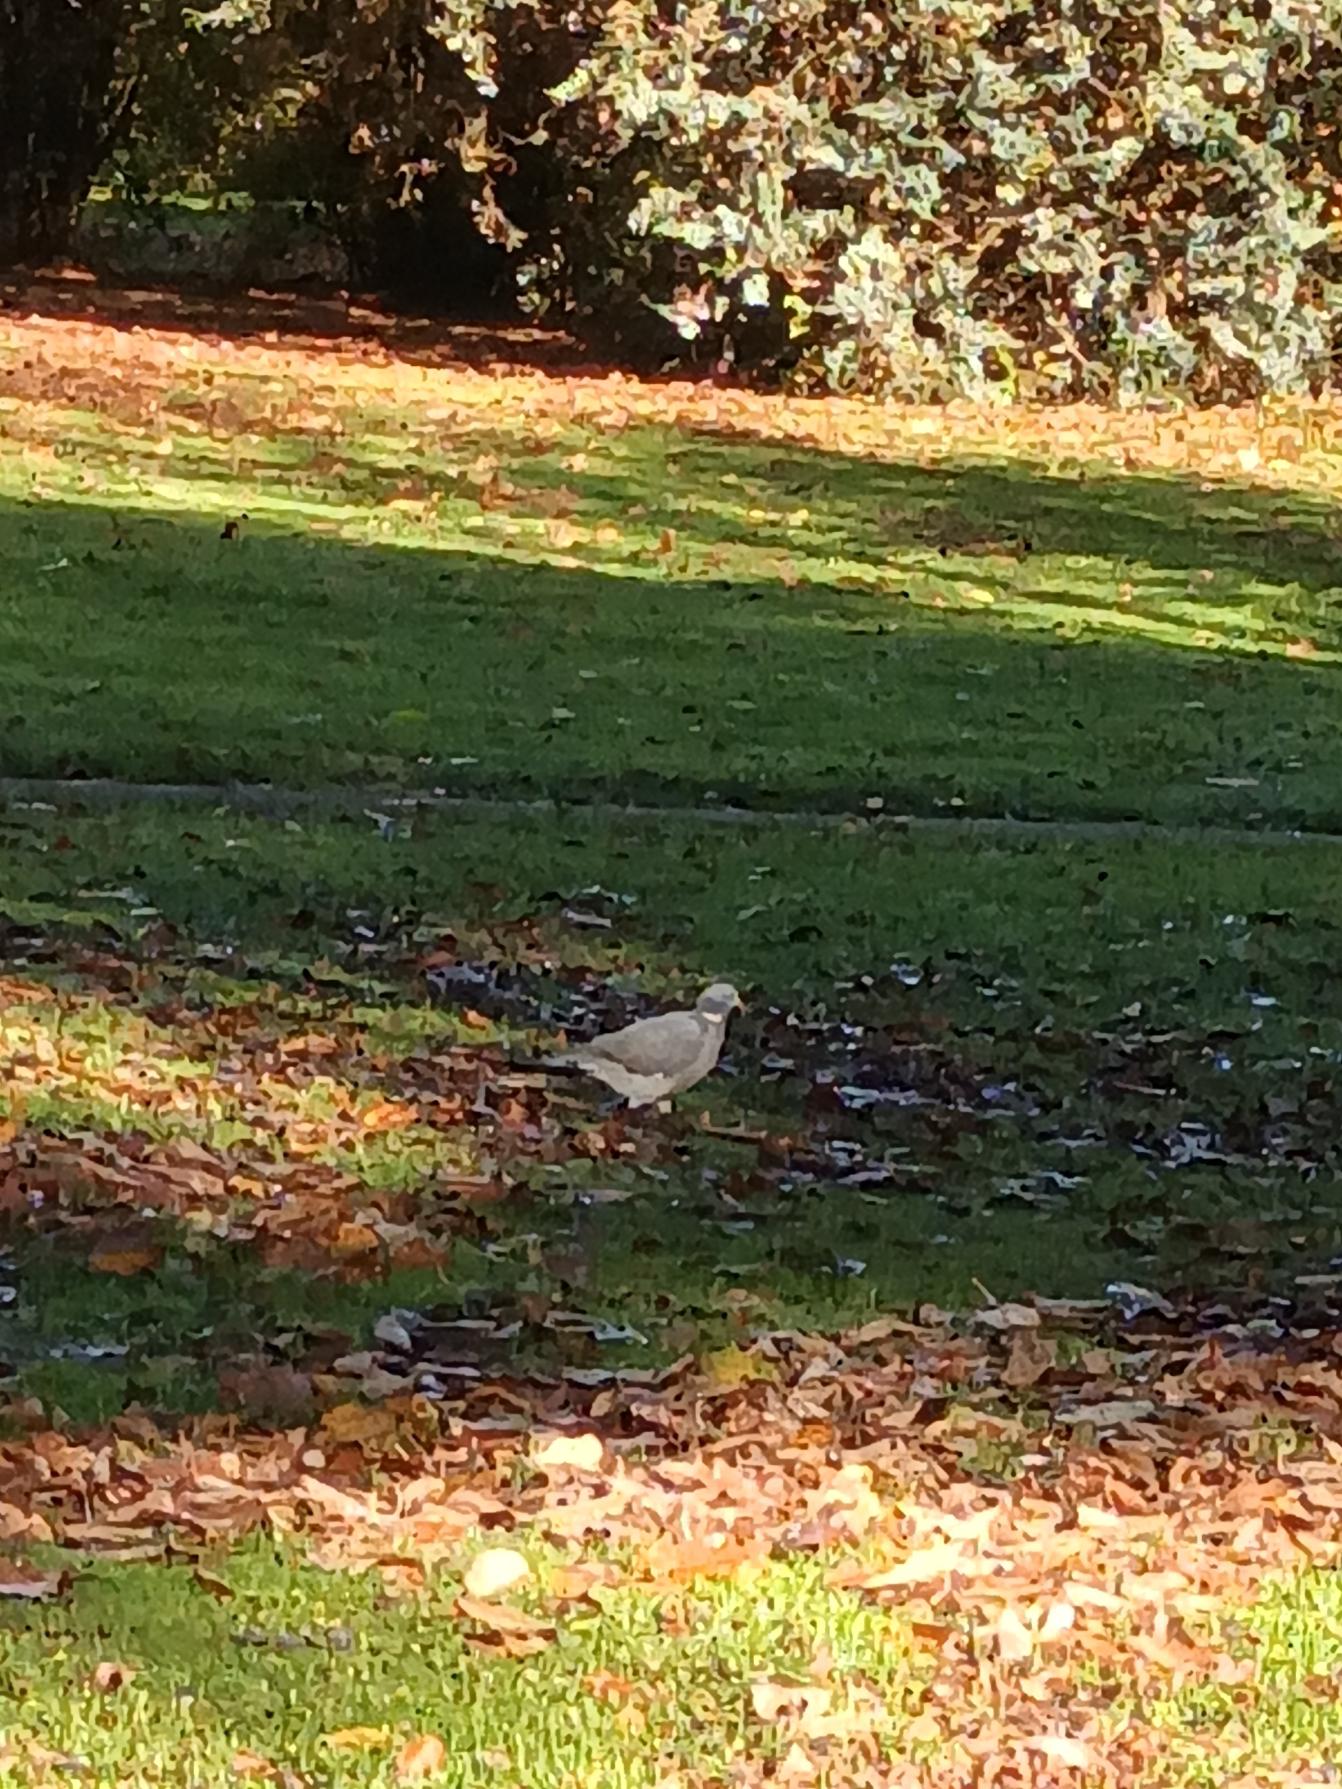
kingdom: Animalia
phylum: Chordata
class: Aves
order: Columbiformes
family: Columbidae
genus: Columba
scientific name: Columba palumbus
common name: Ringdue
